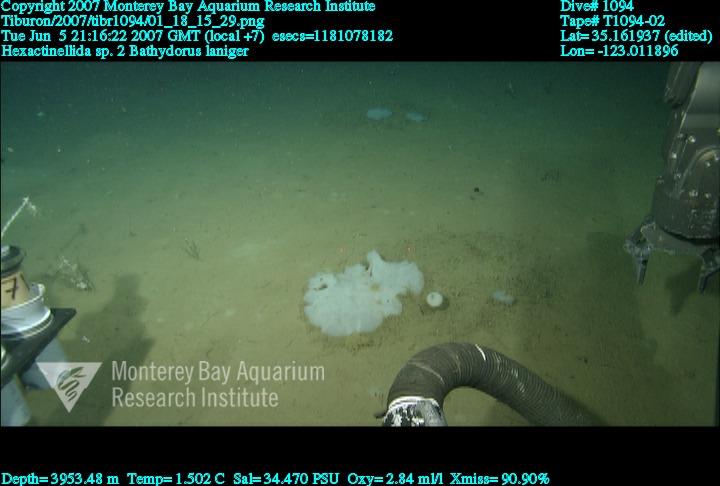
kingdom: Animalia
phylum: Porifera
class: Hexactinellida
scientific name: Hexactinellida
